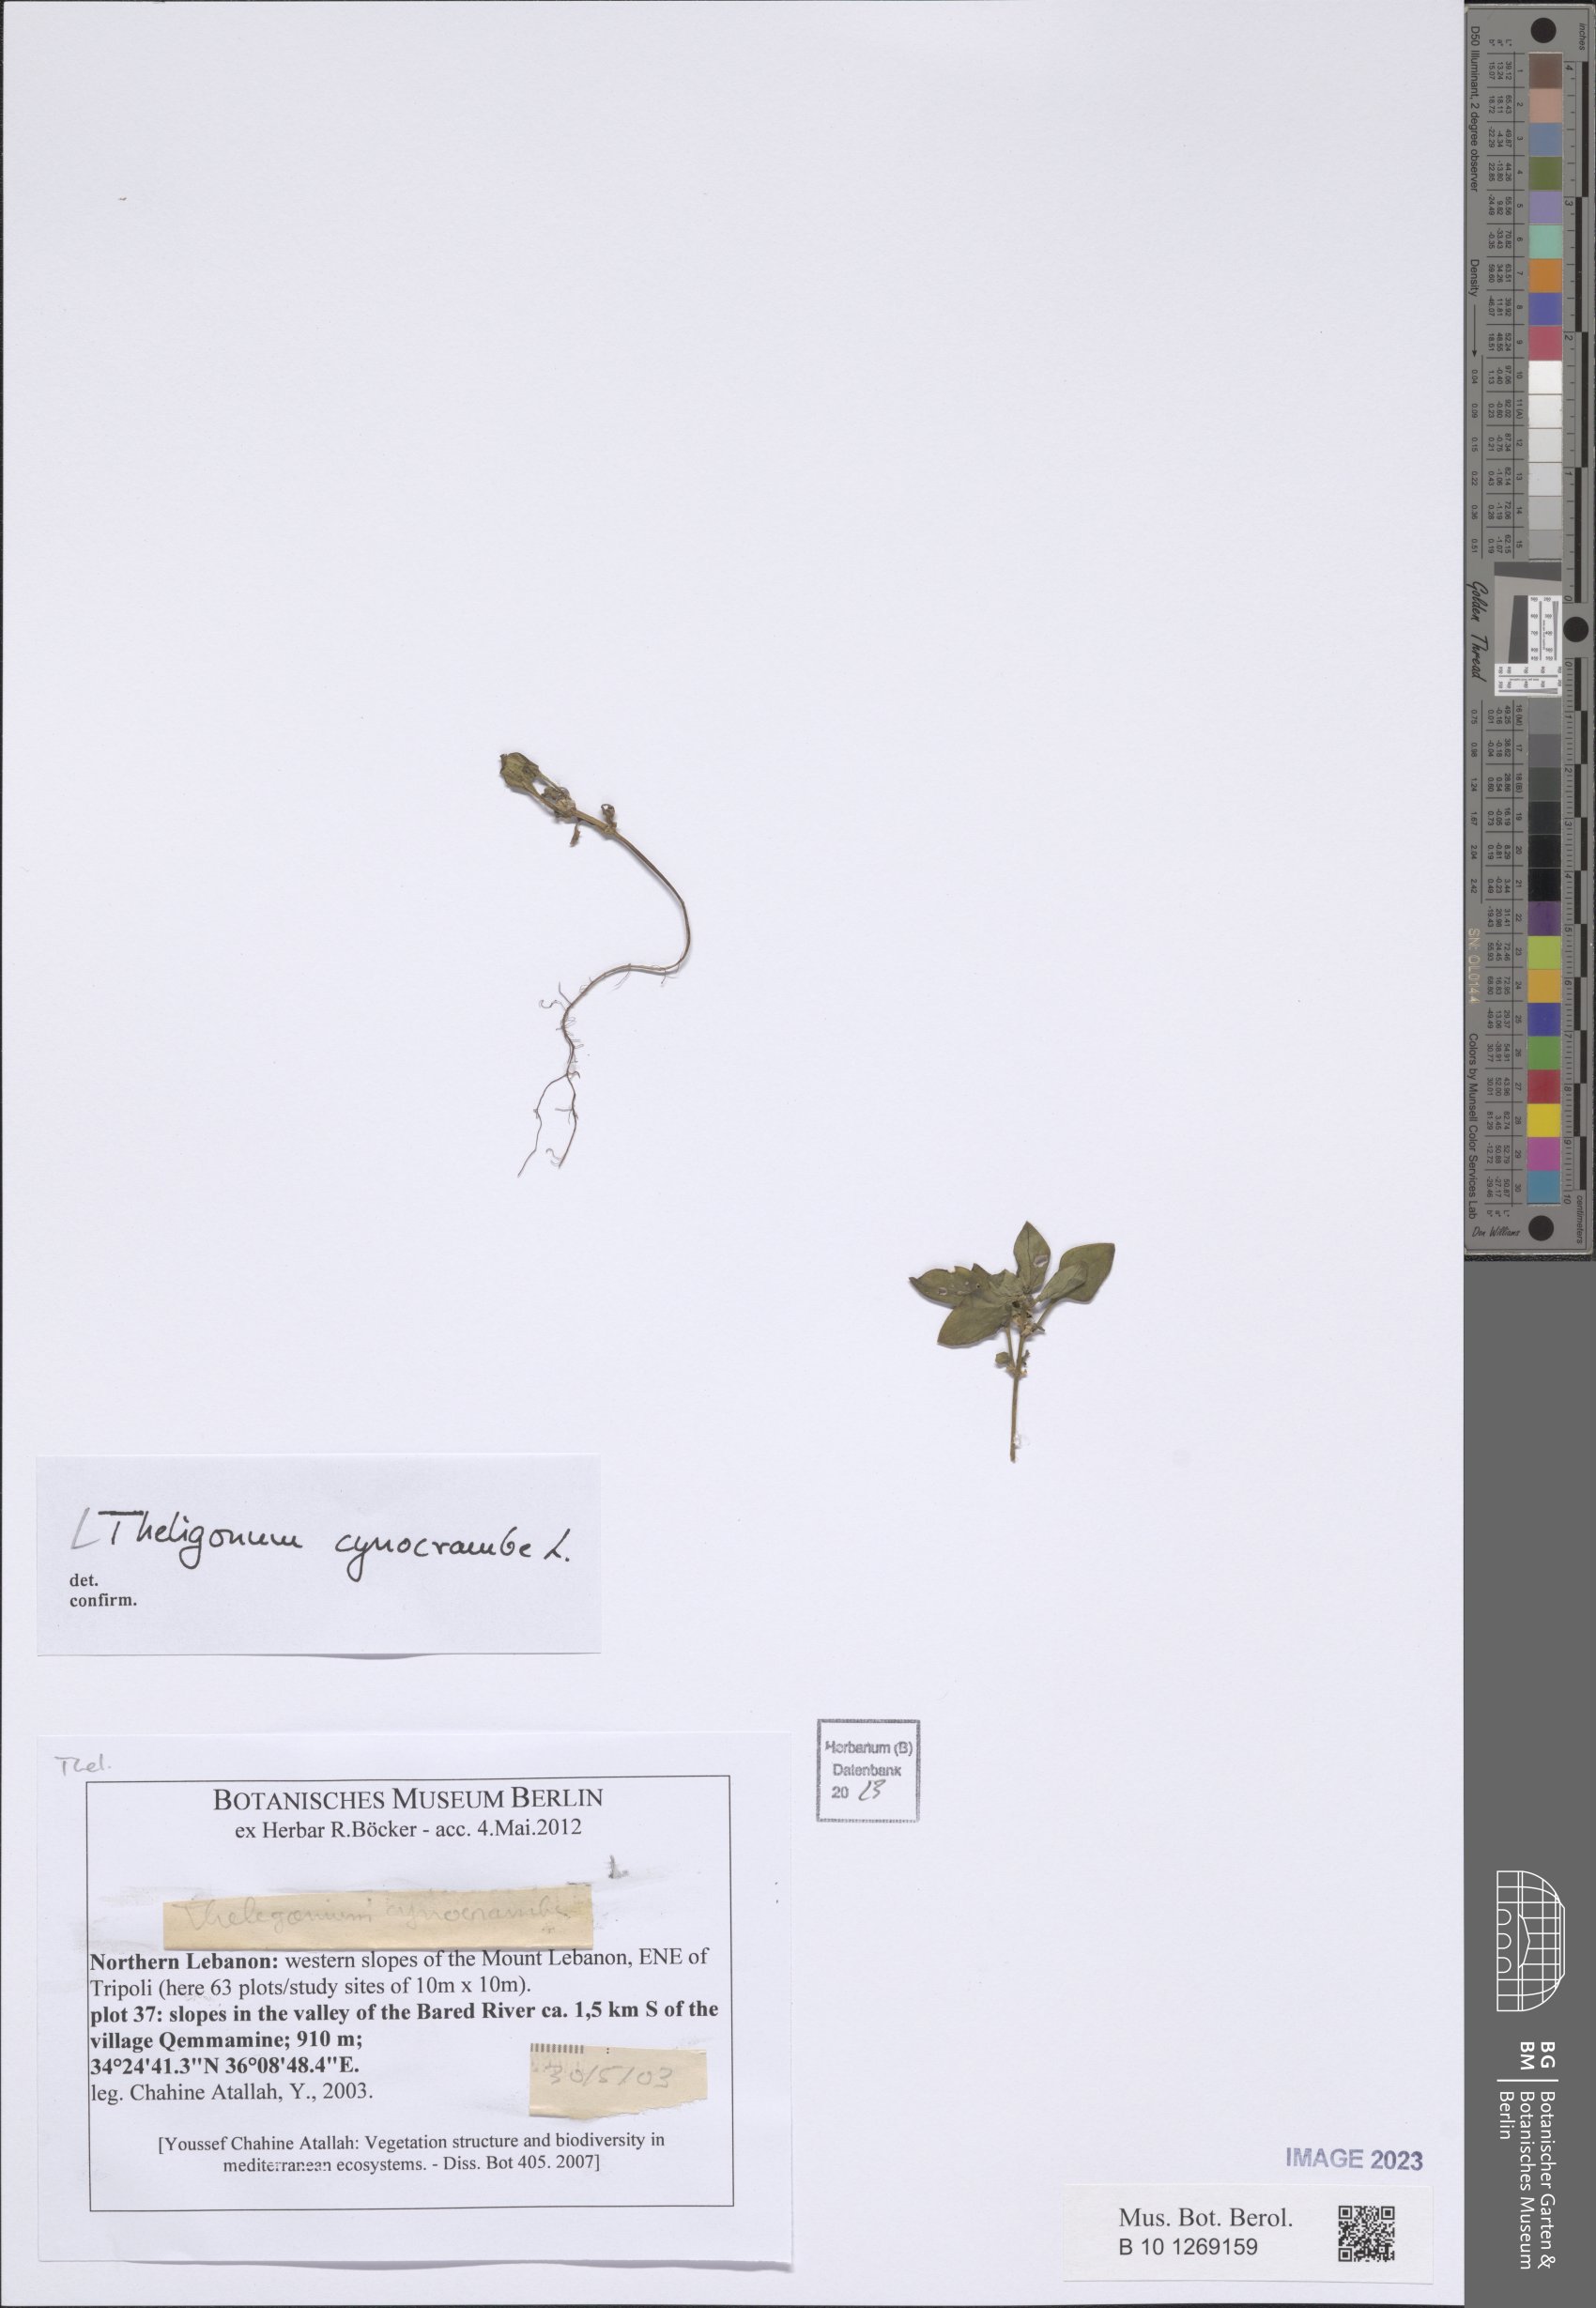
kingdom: Plantae
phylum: Tracheophyta
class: Magnoliopsida
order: Gentianales
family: Rubiaceae
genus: Theligonum
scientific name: Theligonum cynocrambe
